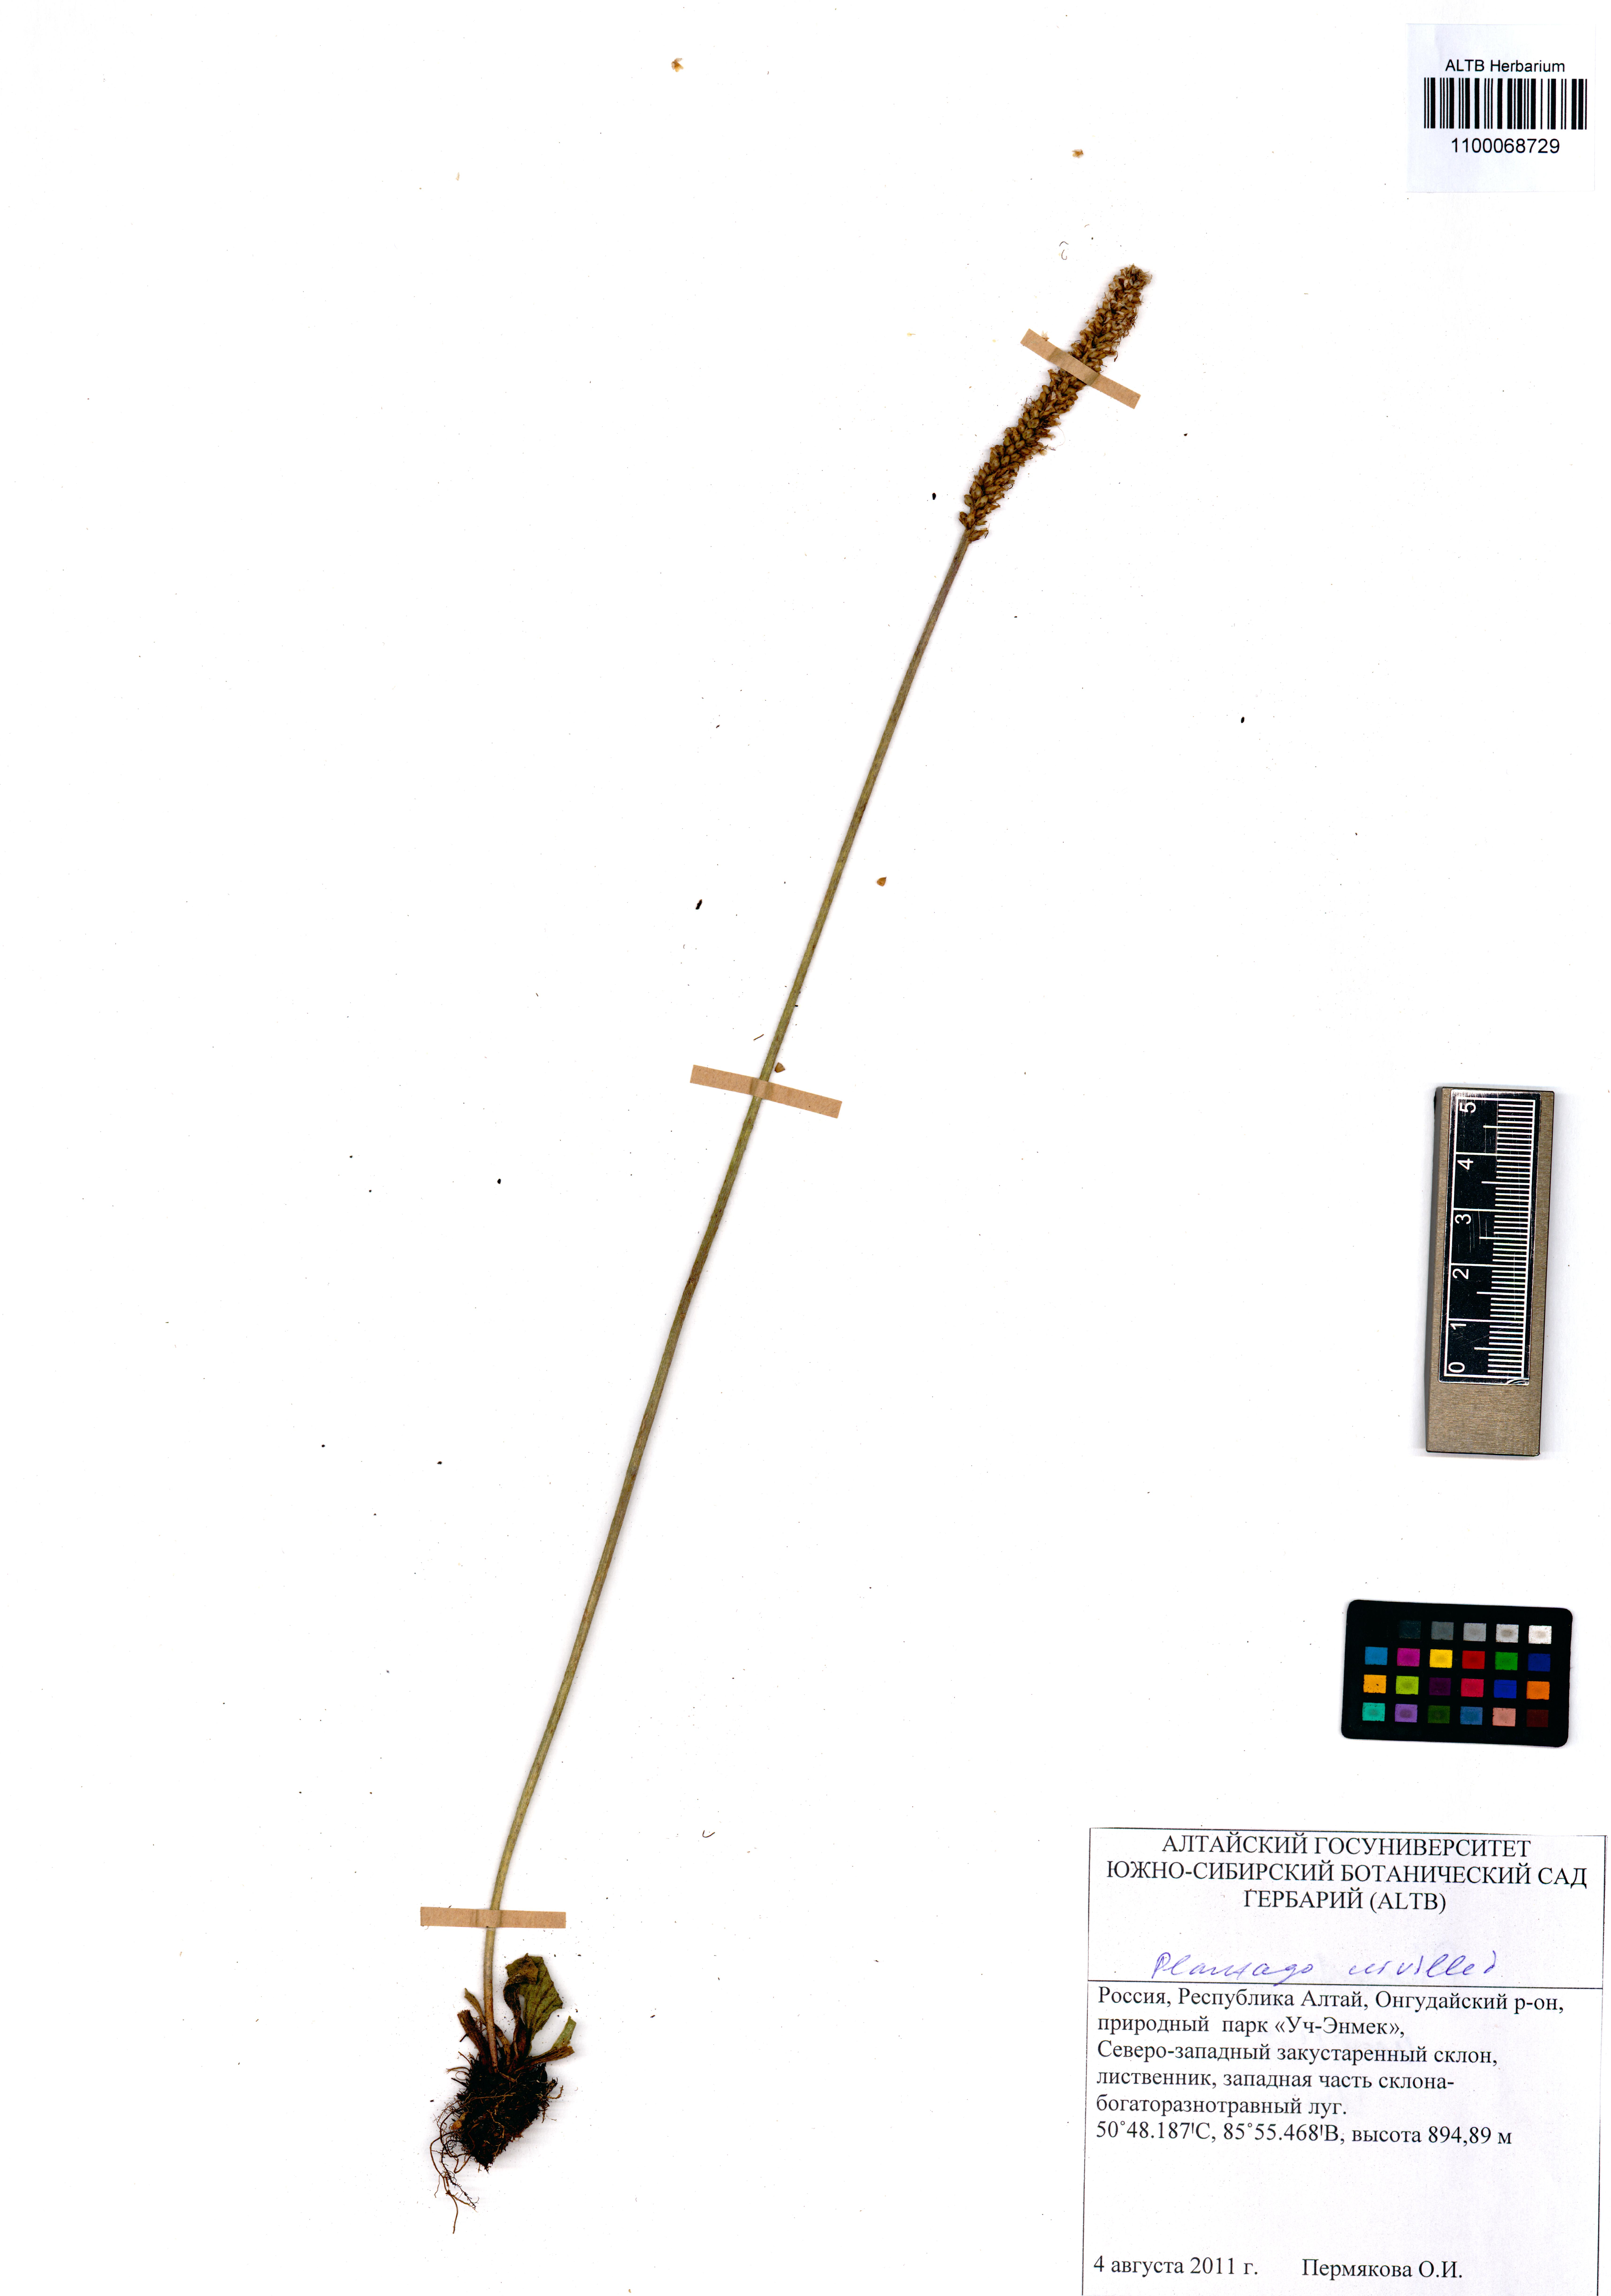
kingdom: Plantae
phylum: Tracheophyta
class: Magnoliopsida
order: Lamiales
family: Plantaginaceae
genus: Plantago
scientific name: Plantago urvillei
